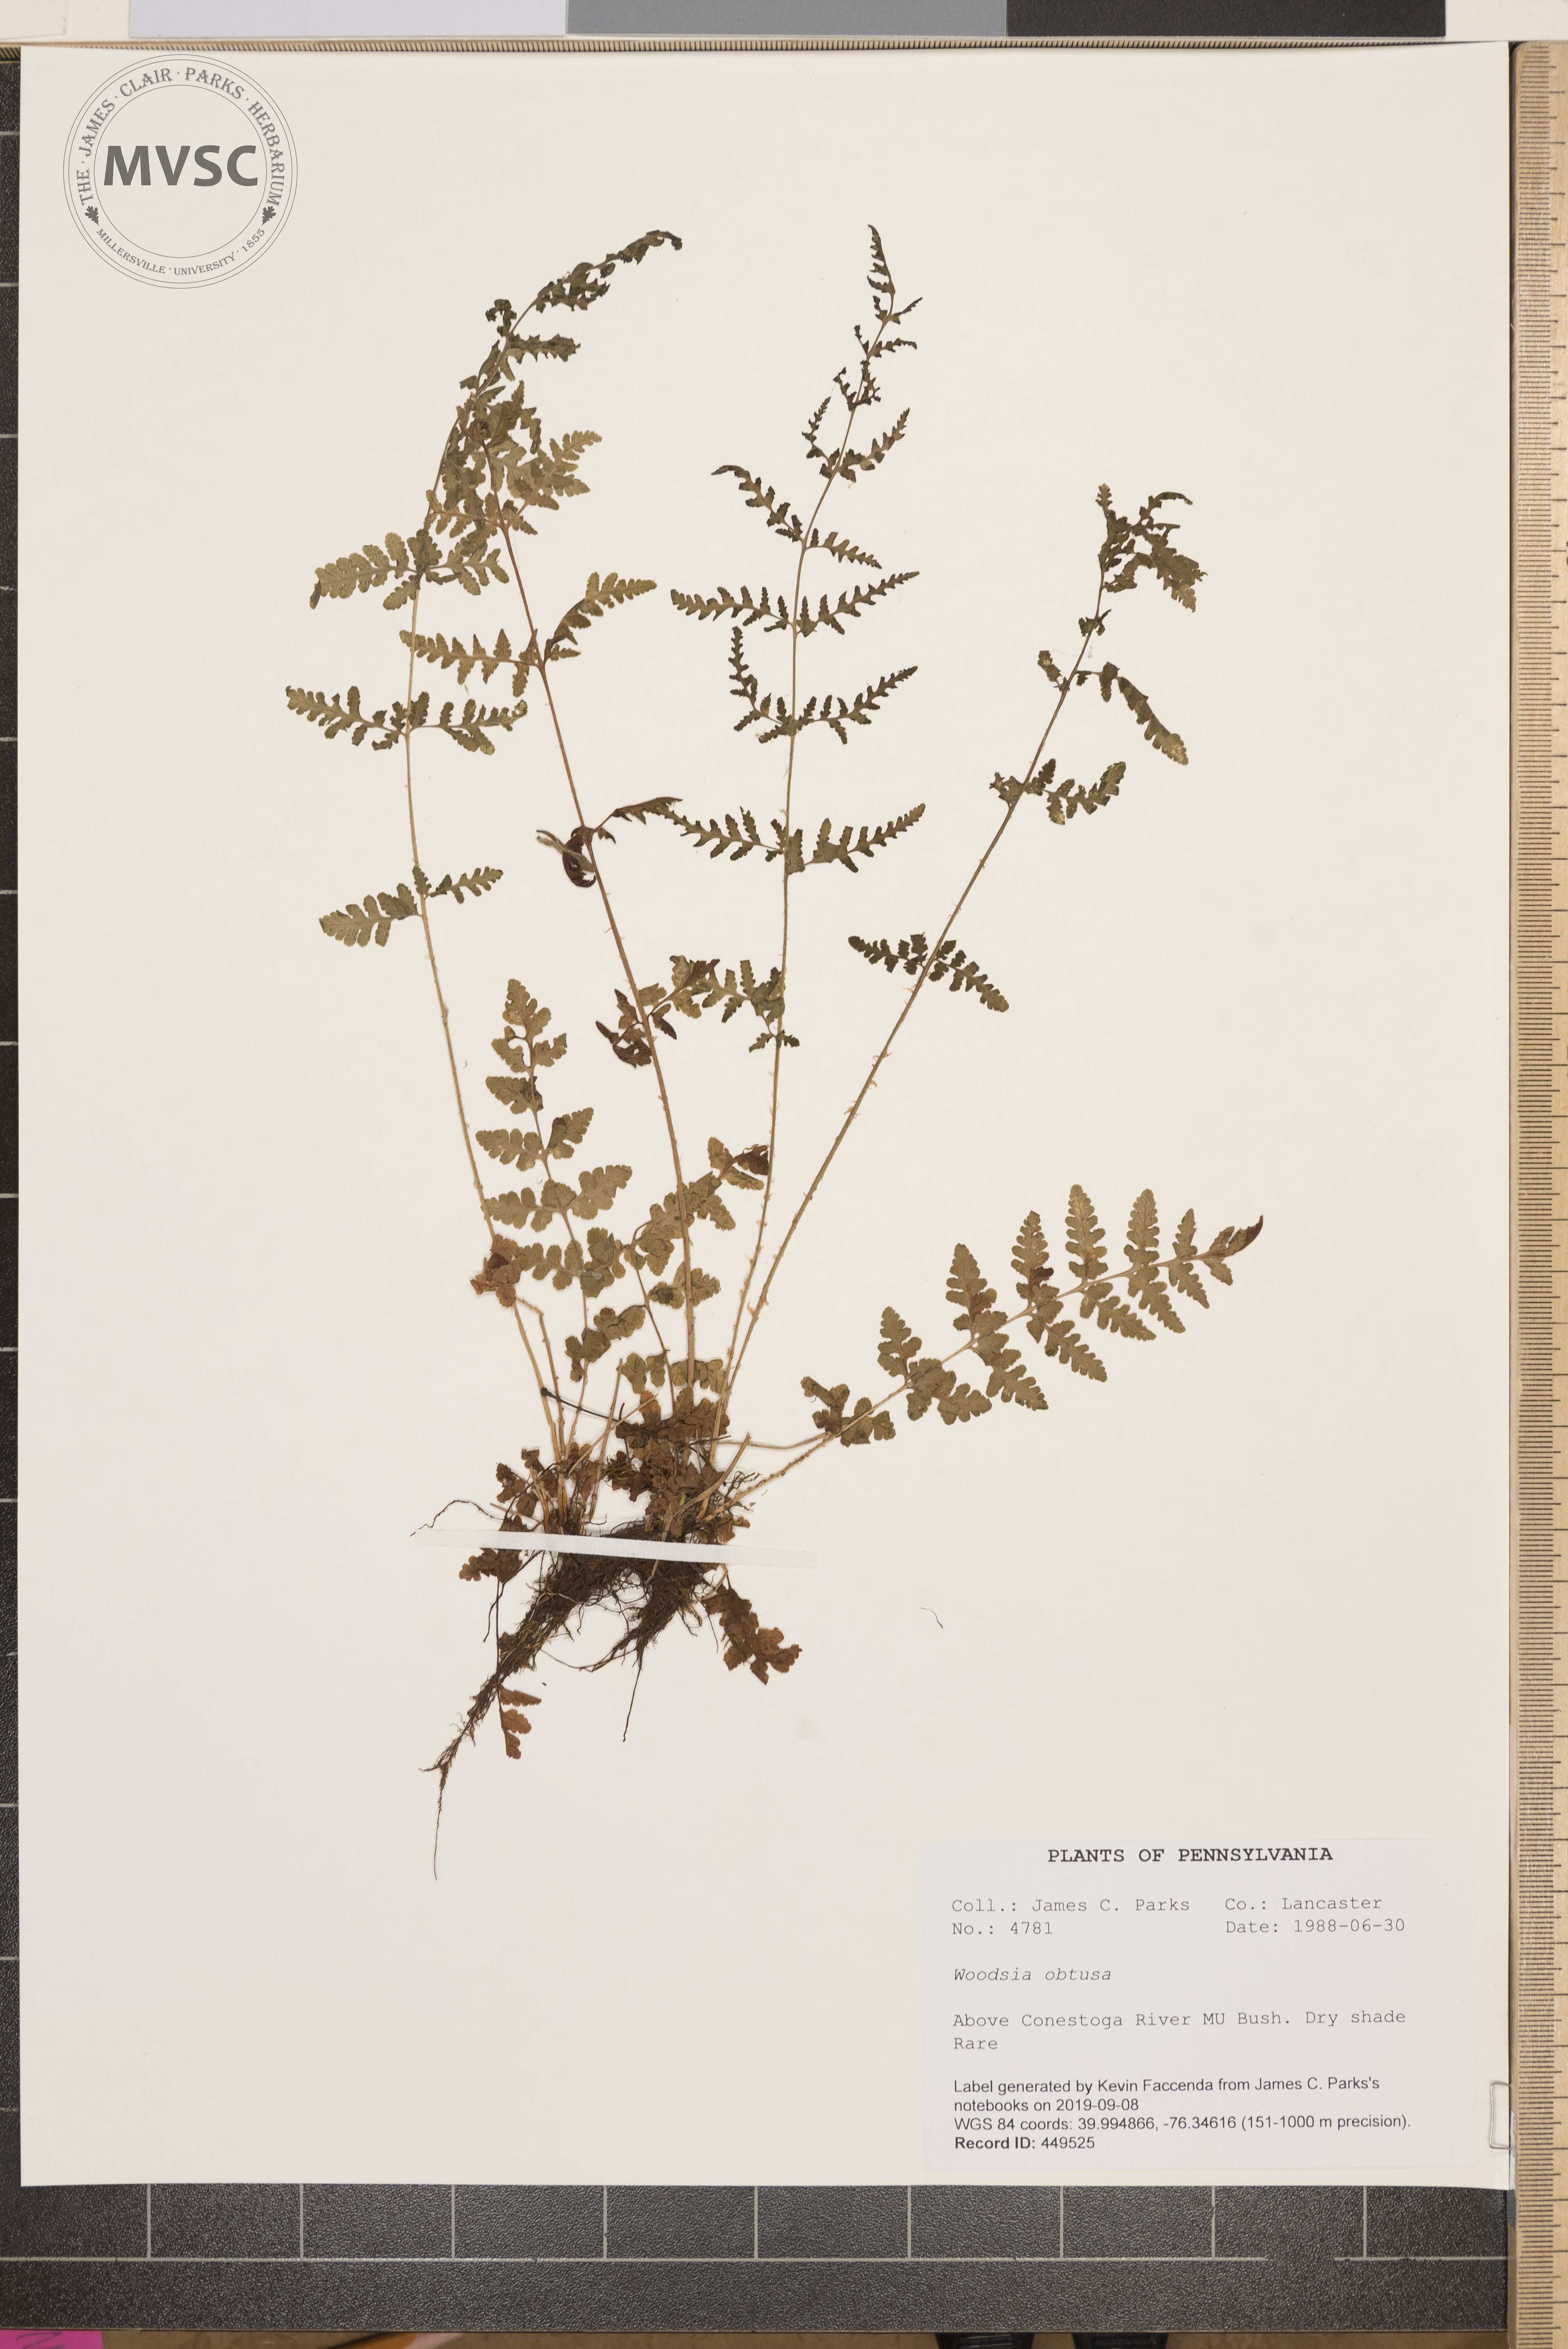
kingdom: Plantae
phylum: Tracheophyta
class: Polypodiopsida
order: Polypodiales
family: Woodsiaceae
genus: Physematium
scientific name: Physematium obtusum
